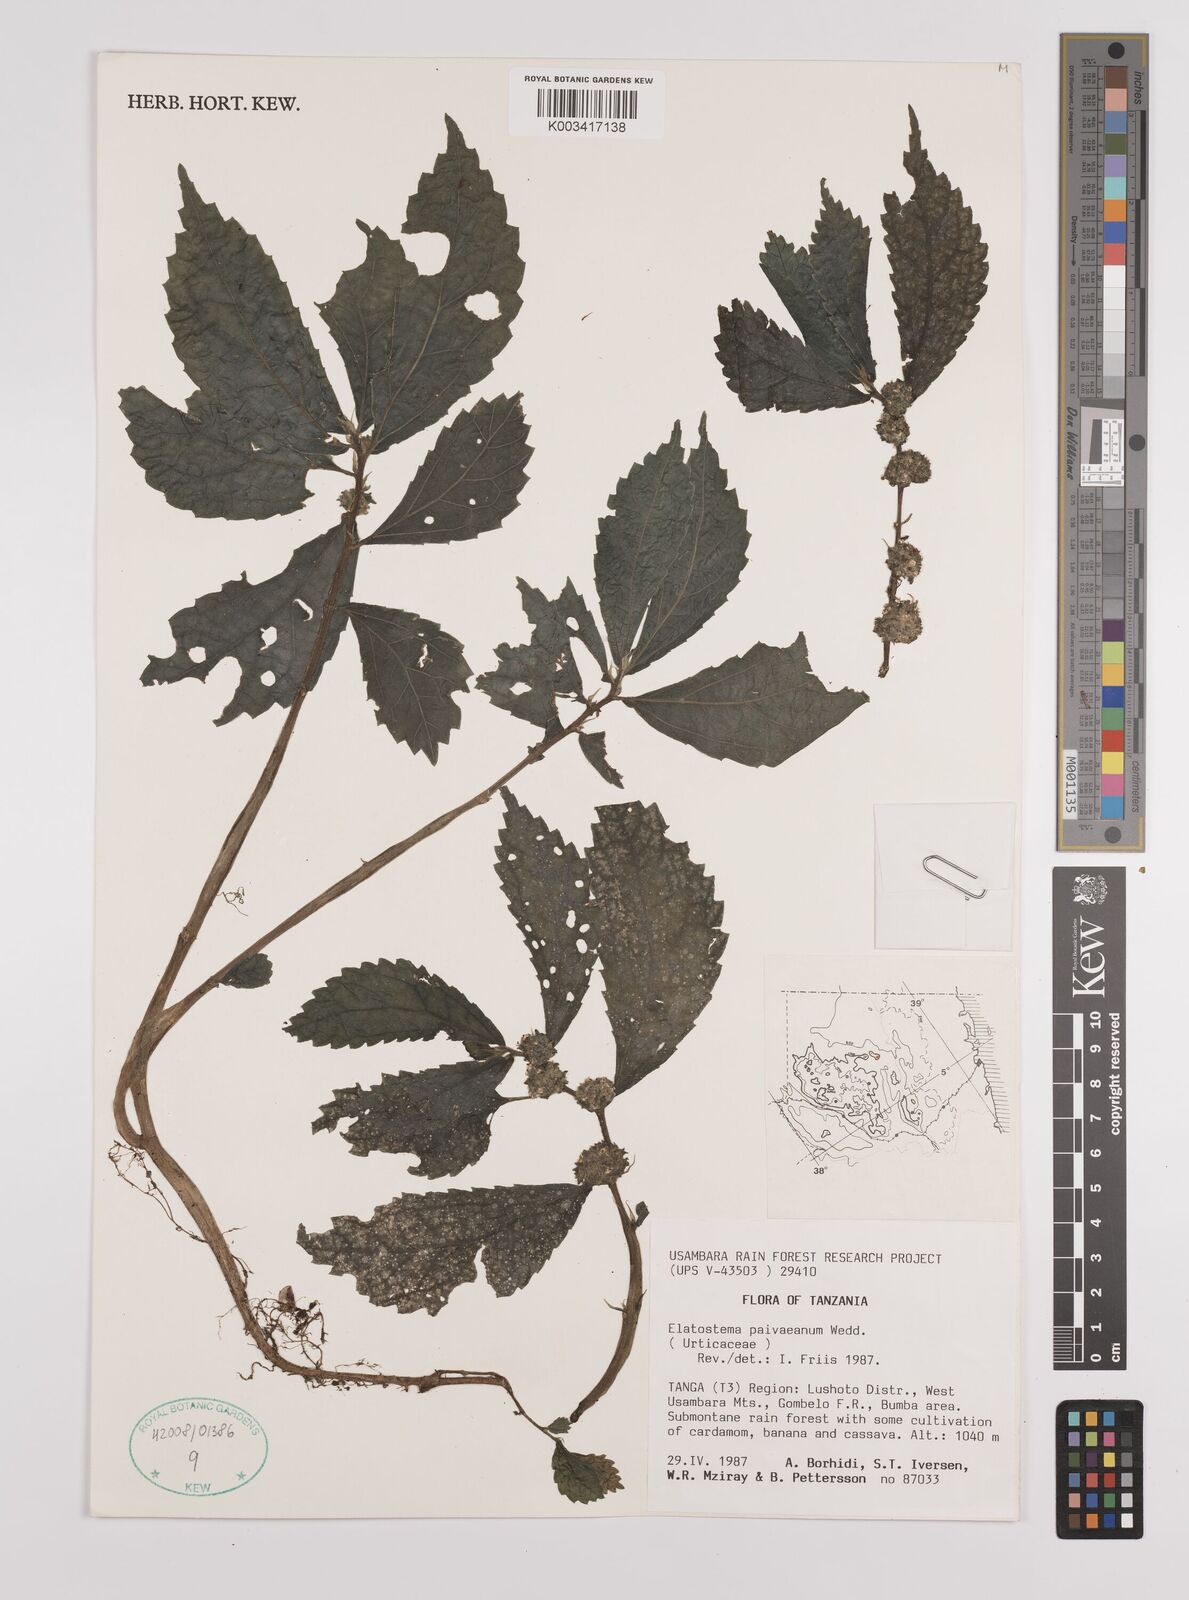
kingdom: Plantae
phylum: Tracheophyta
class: Magnoliopsida
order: Rosales
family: Urticaceae
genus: Elatostema
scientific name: Elatostema paivaeanum
